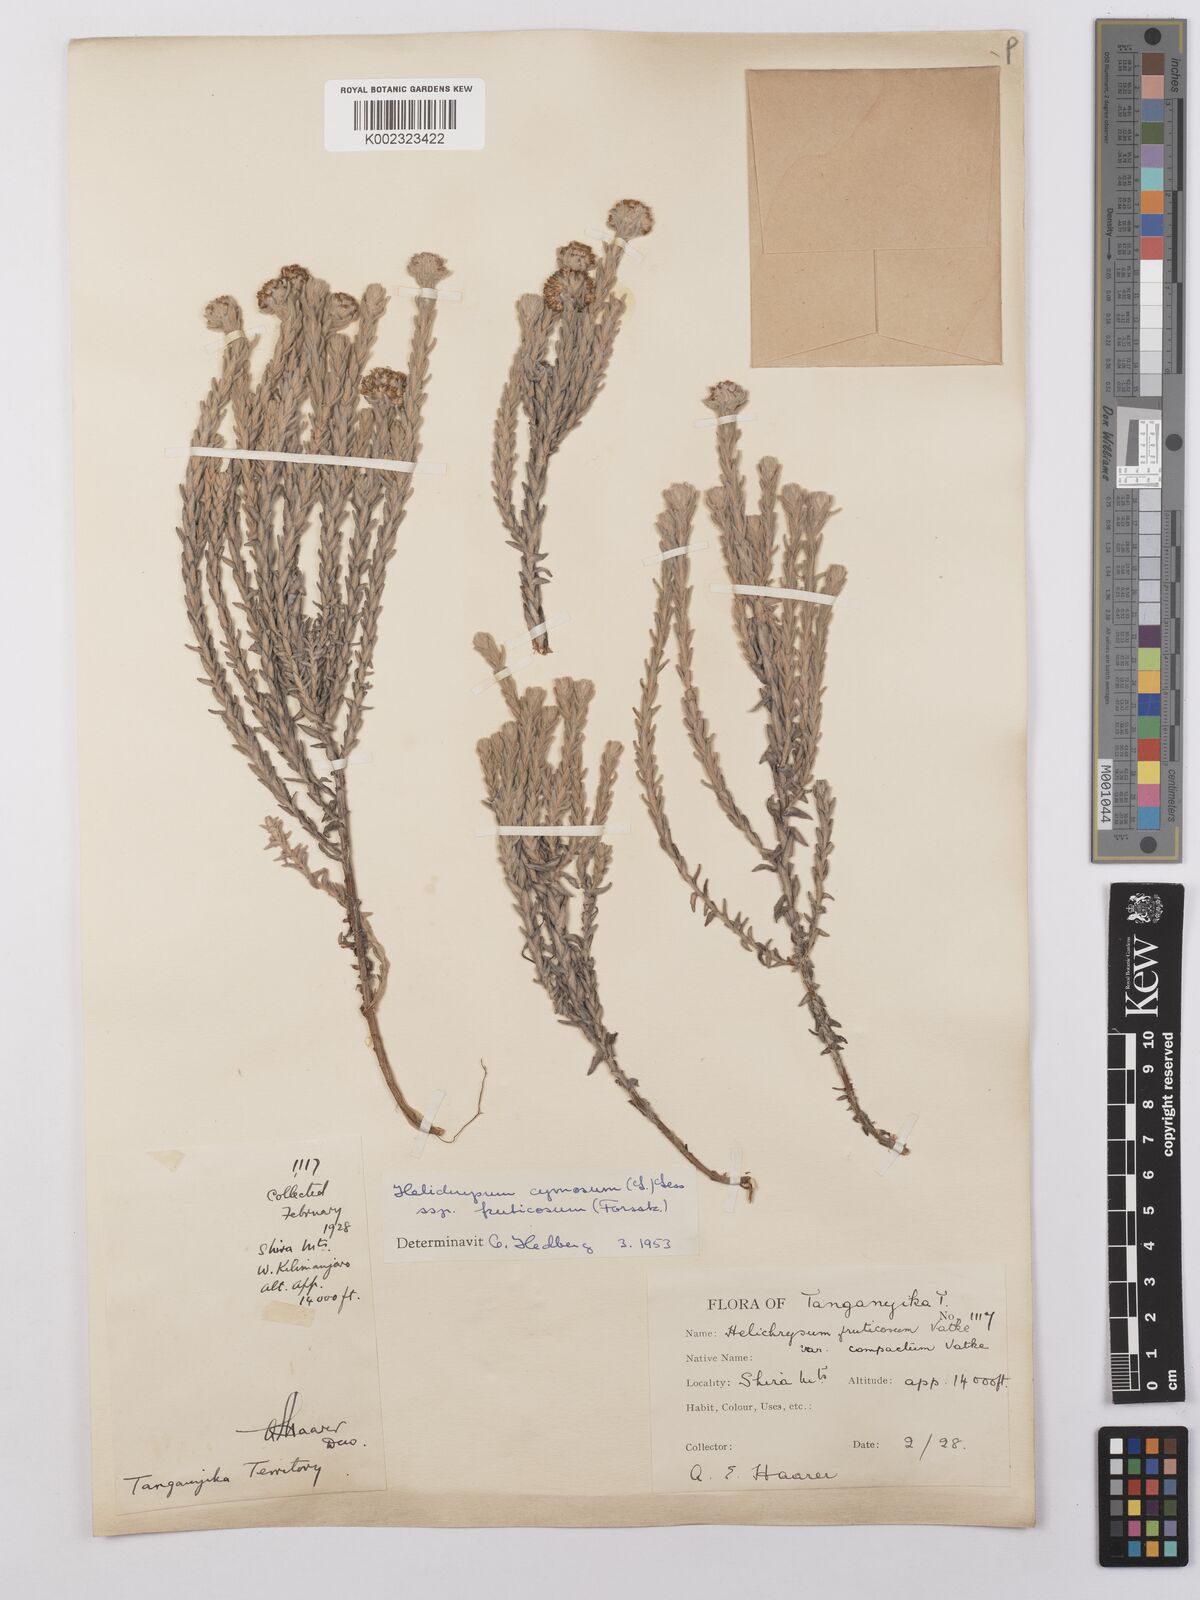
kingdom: Plantae
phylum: Tracheophyta
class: Magnoliopsida
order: Asterales
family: Asteraceae
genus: Helichrysum
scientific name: Helichrysum forskahlii
